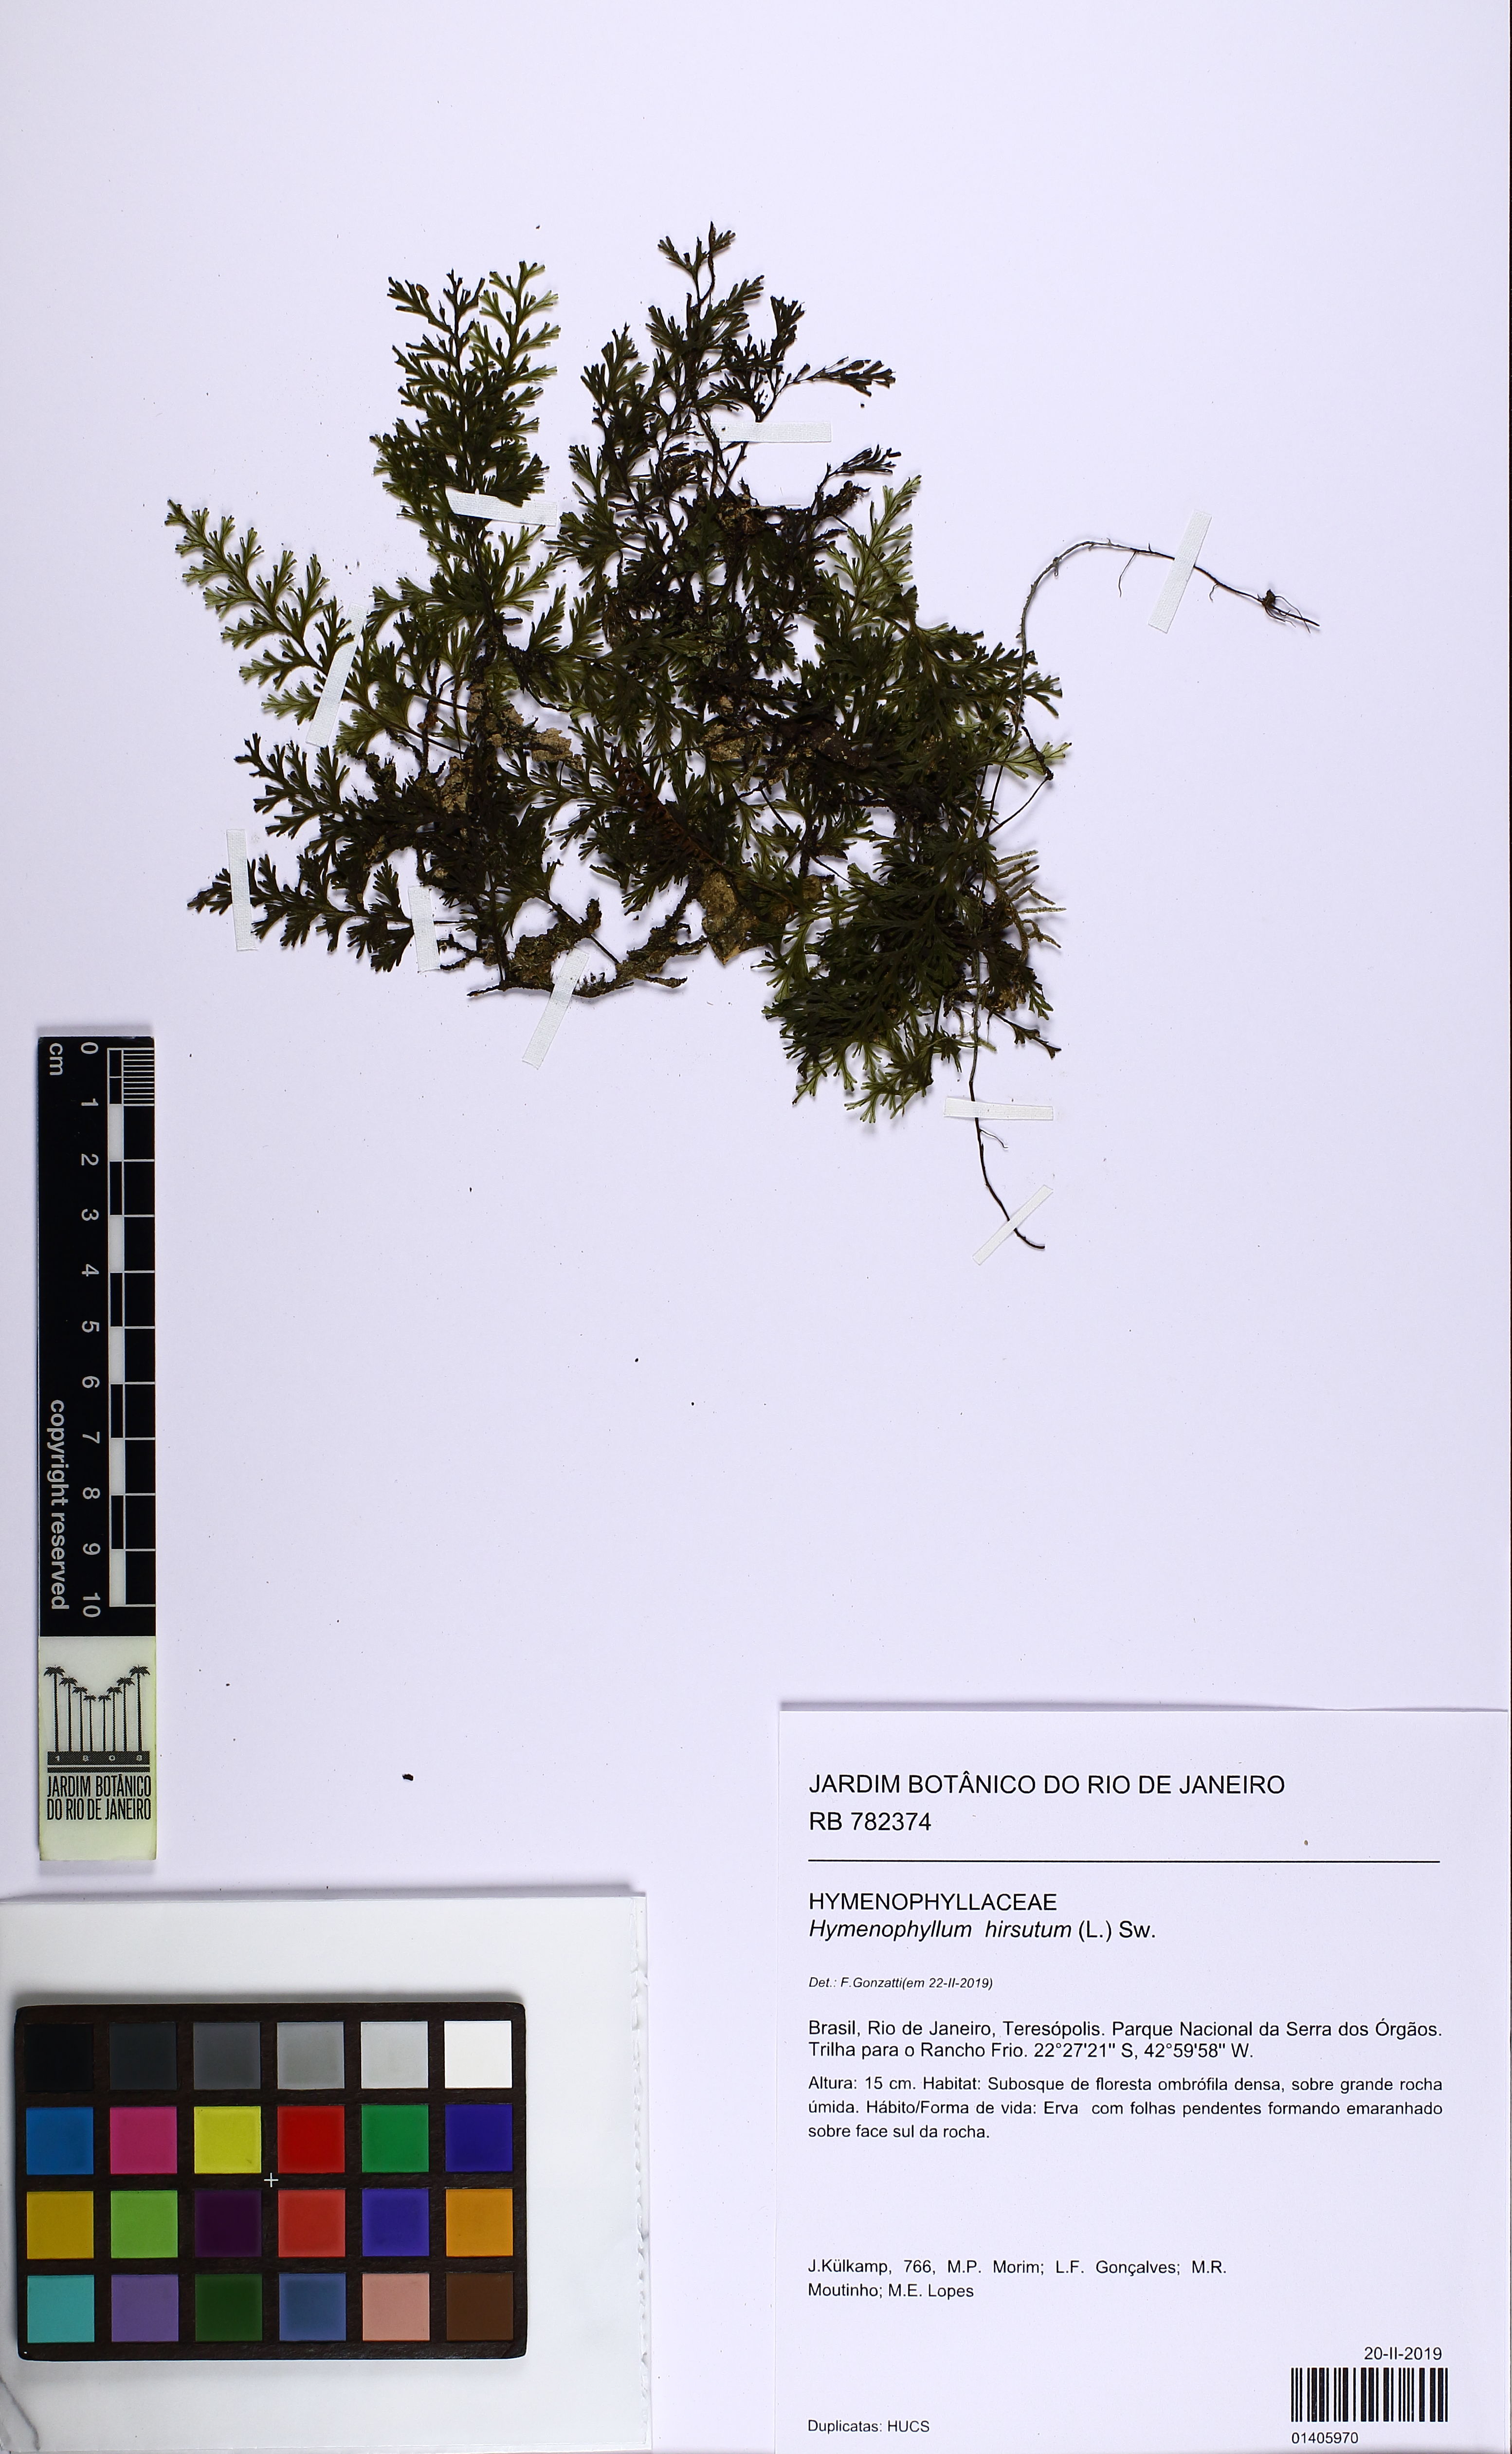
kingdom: Plantae
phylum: Tracheophyta
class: Polypodiopsida
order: Hymenophyllales
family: Hymenophyllaceae
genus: Hymenophyllum
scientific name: Hymenophyllum hirsutum
